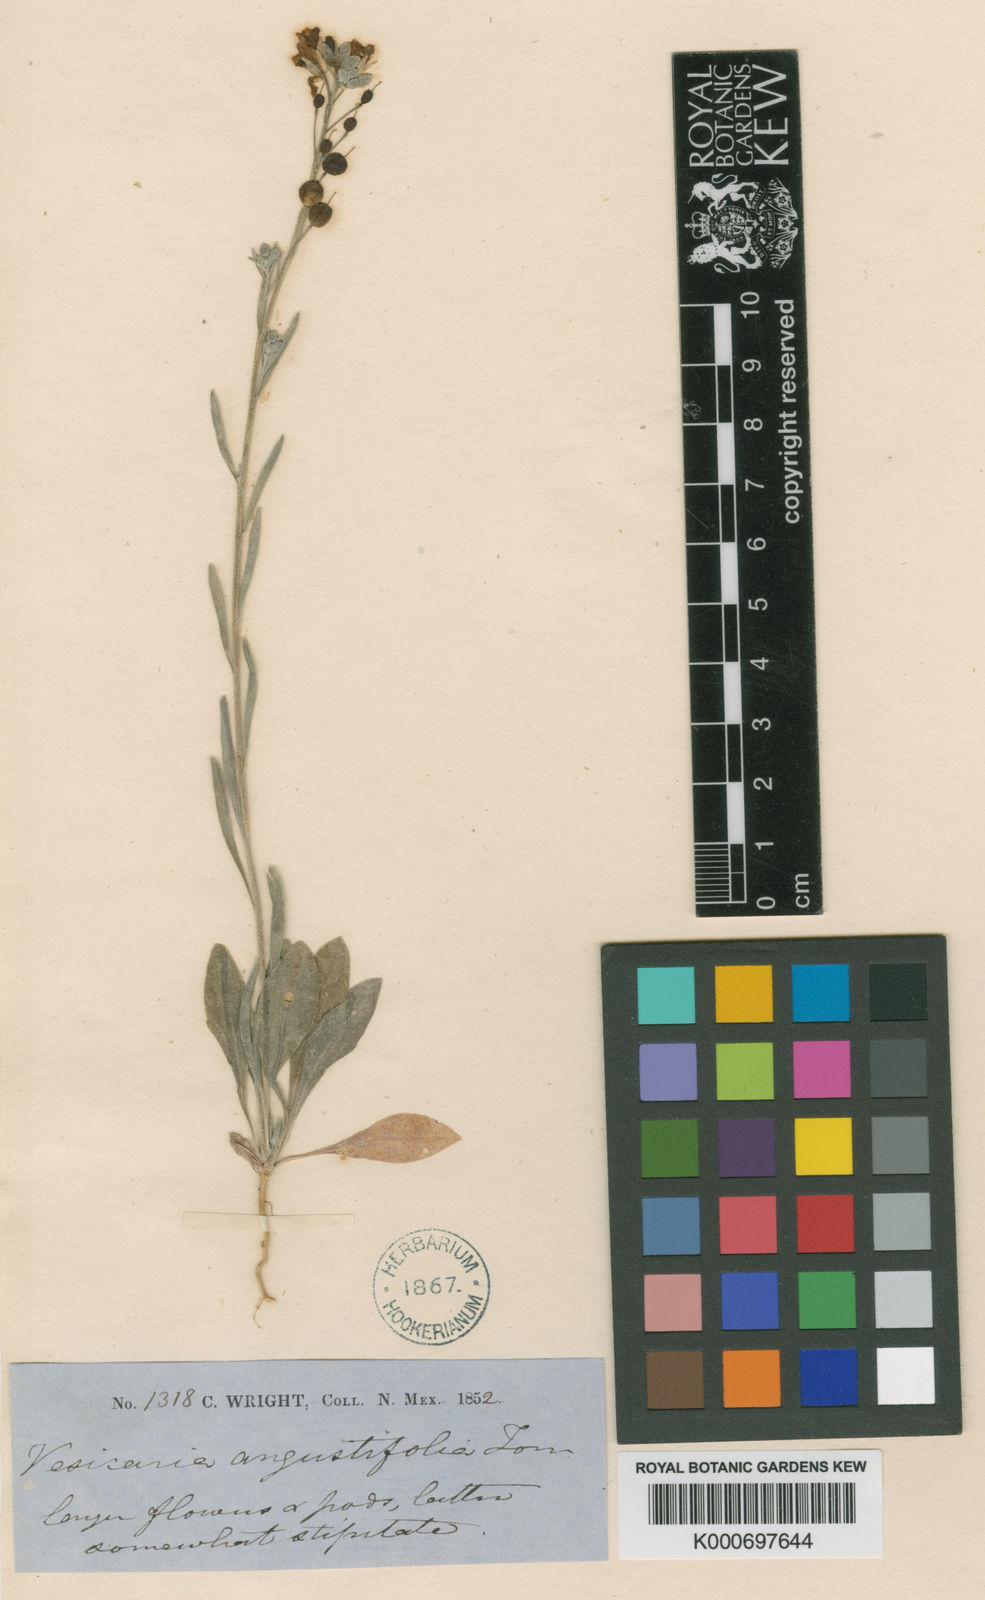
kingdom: Plantae
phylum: Tracheophyta
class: Magnoliopsida
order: Brassicales
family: Brassicaceae
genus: Physaria
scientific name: Physaria sessilis
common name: Sessile bladderpod
